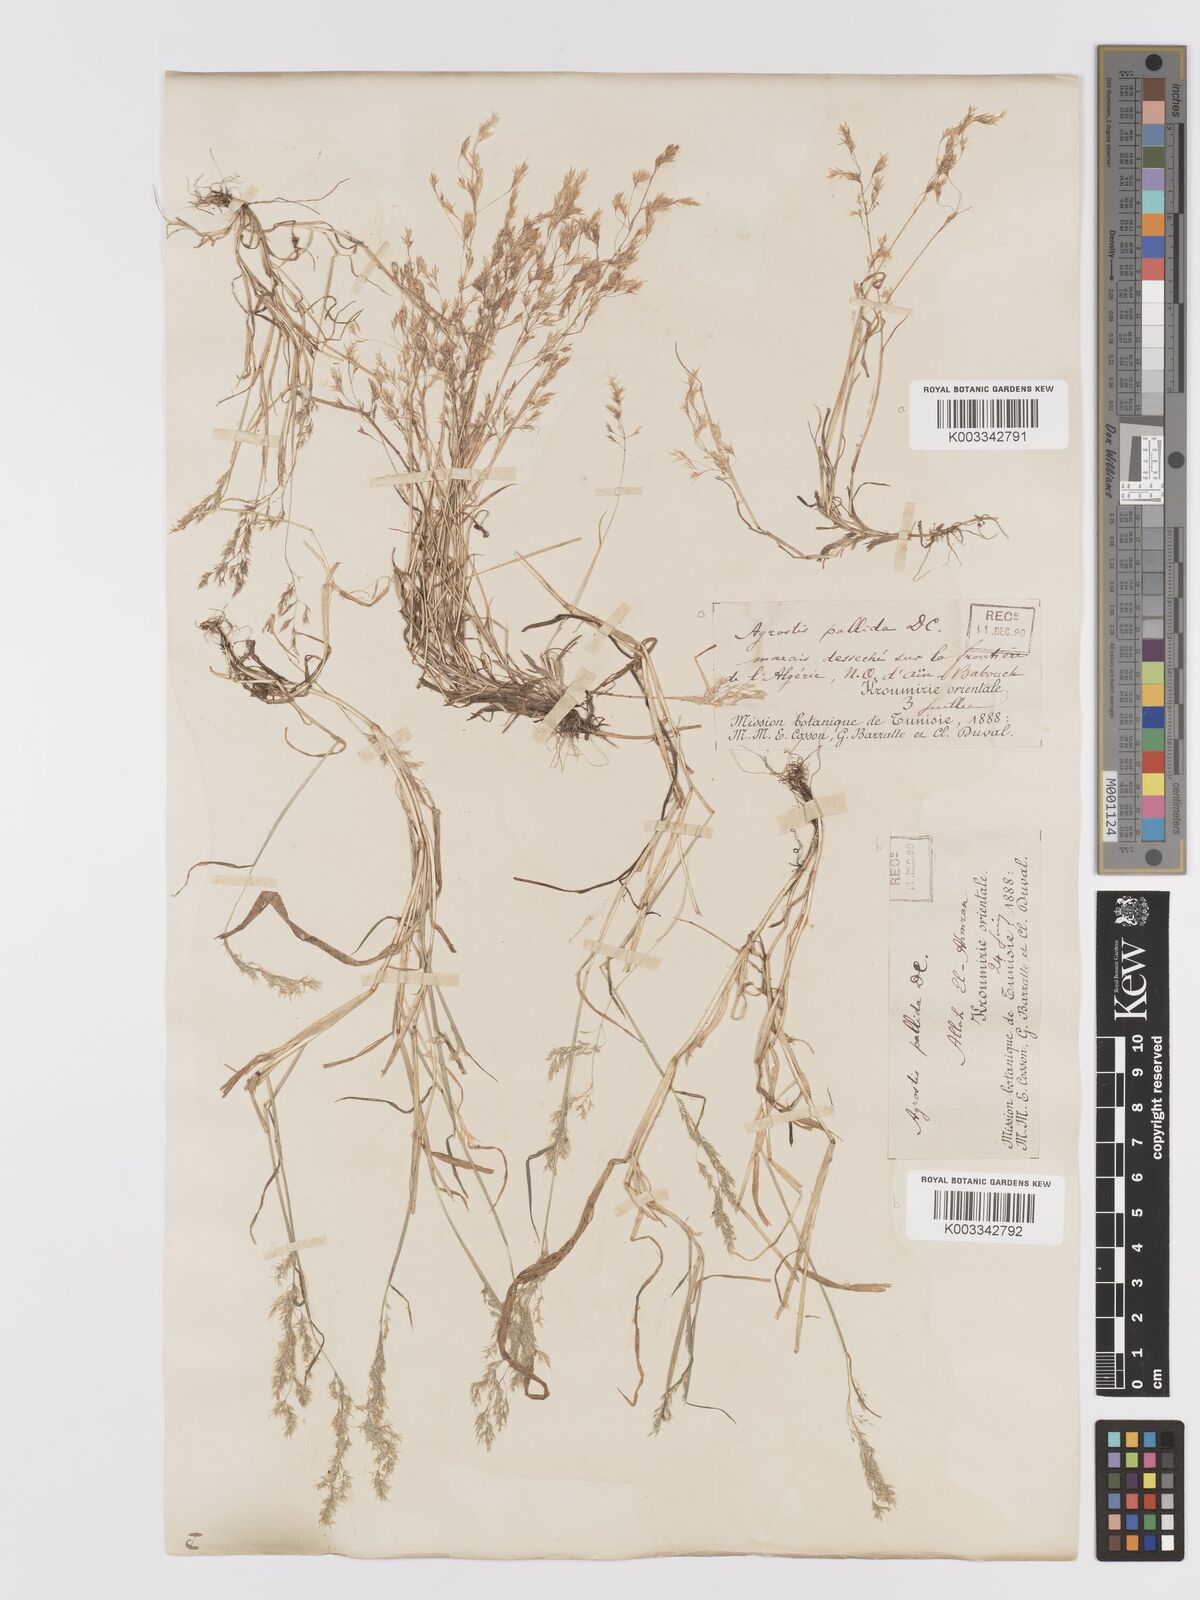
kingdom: Plantae
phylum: Tracheophyta
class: Liliopsida
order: Poales
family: Poaceae
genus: Agrostis
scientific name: Agrostis pourretii
